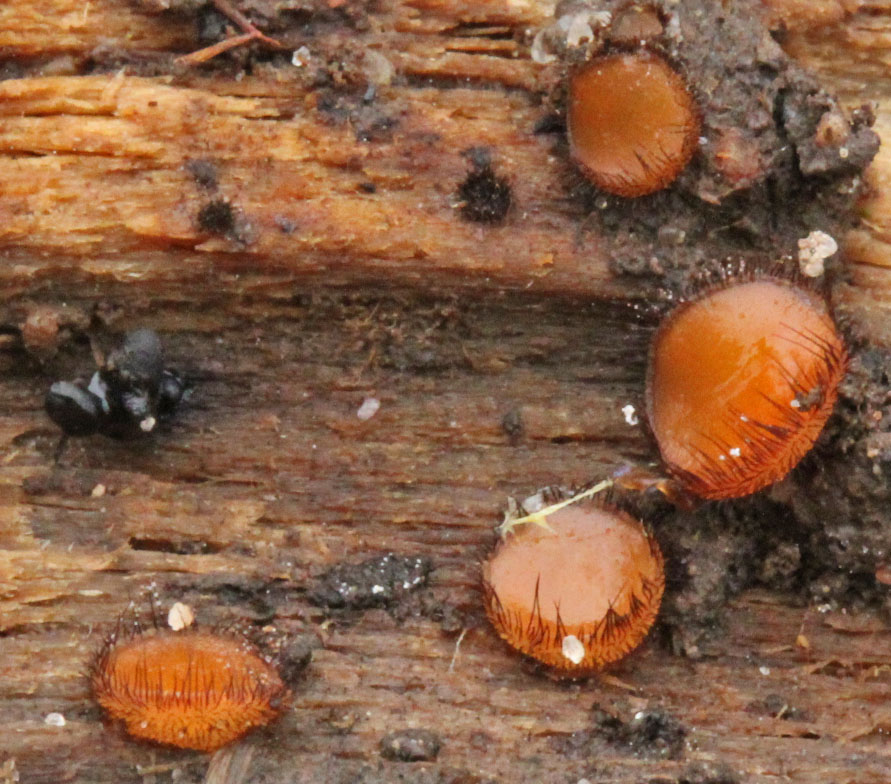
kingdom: Fungi
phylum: Ascomycota
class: Pezizomycetes
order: Pezizales
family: Pyronemataceae
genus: Scutellinia
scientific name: Scutellinia
